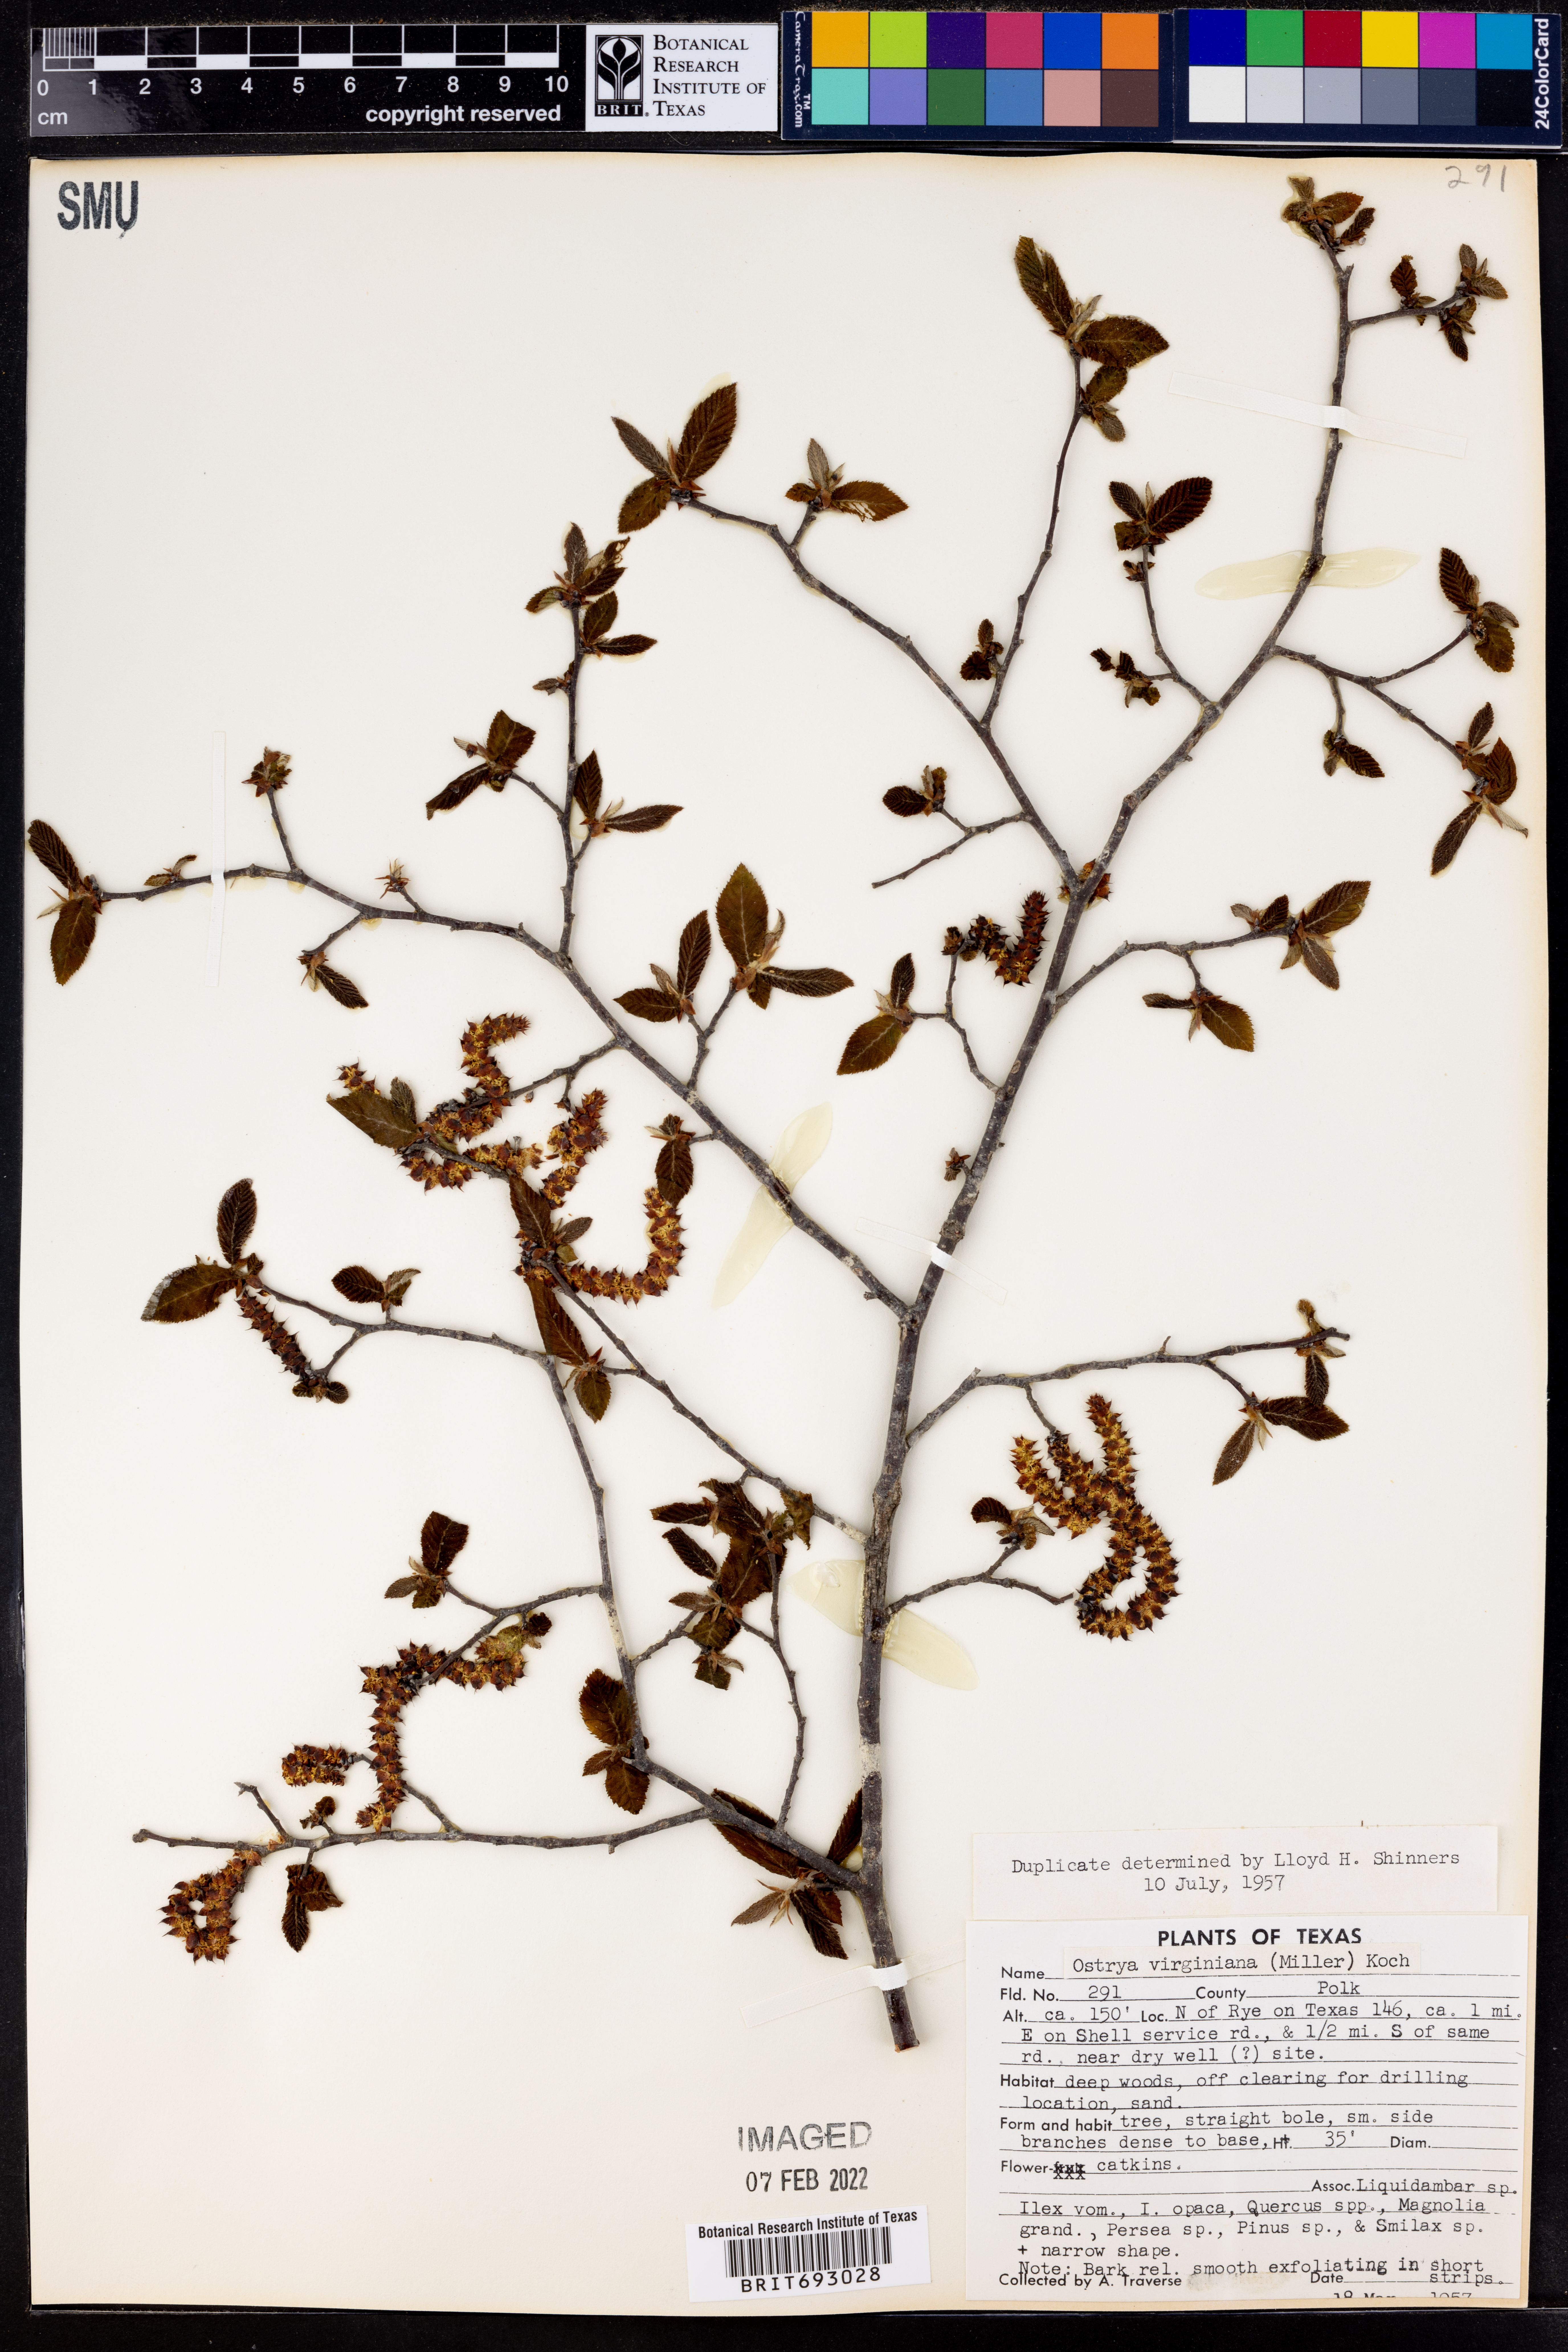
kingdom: Plantae
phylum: Tracheophyta
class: Magnoliopsida
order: Fagales
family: Betulaceae
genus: Ostrya
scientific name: Ostrya virginiana
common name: Ironwood
